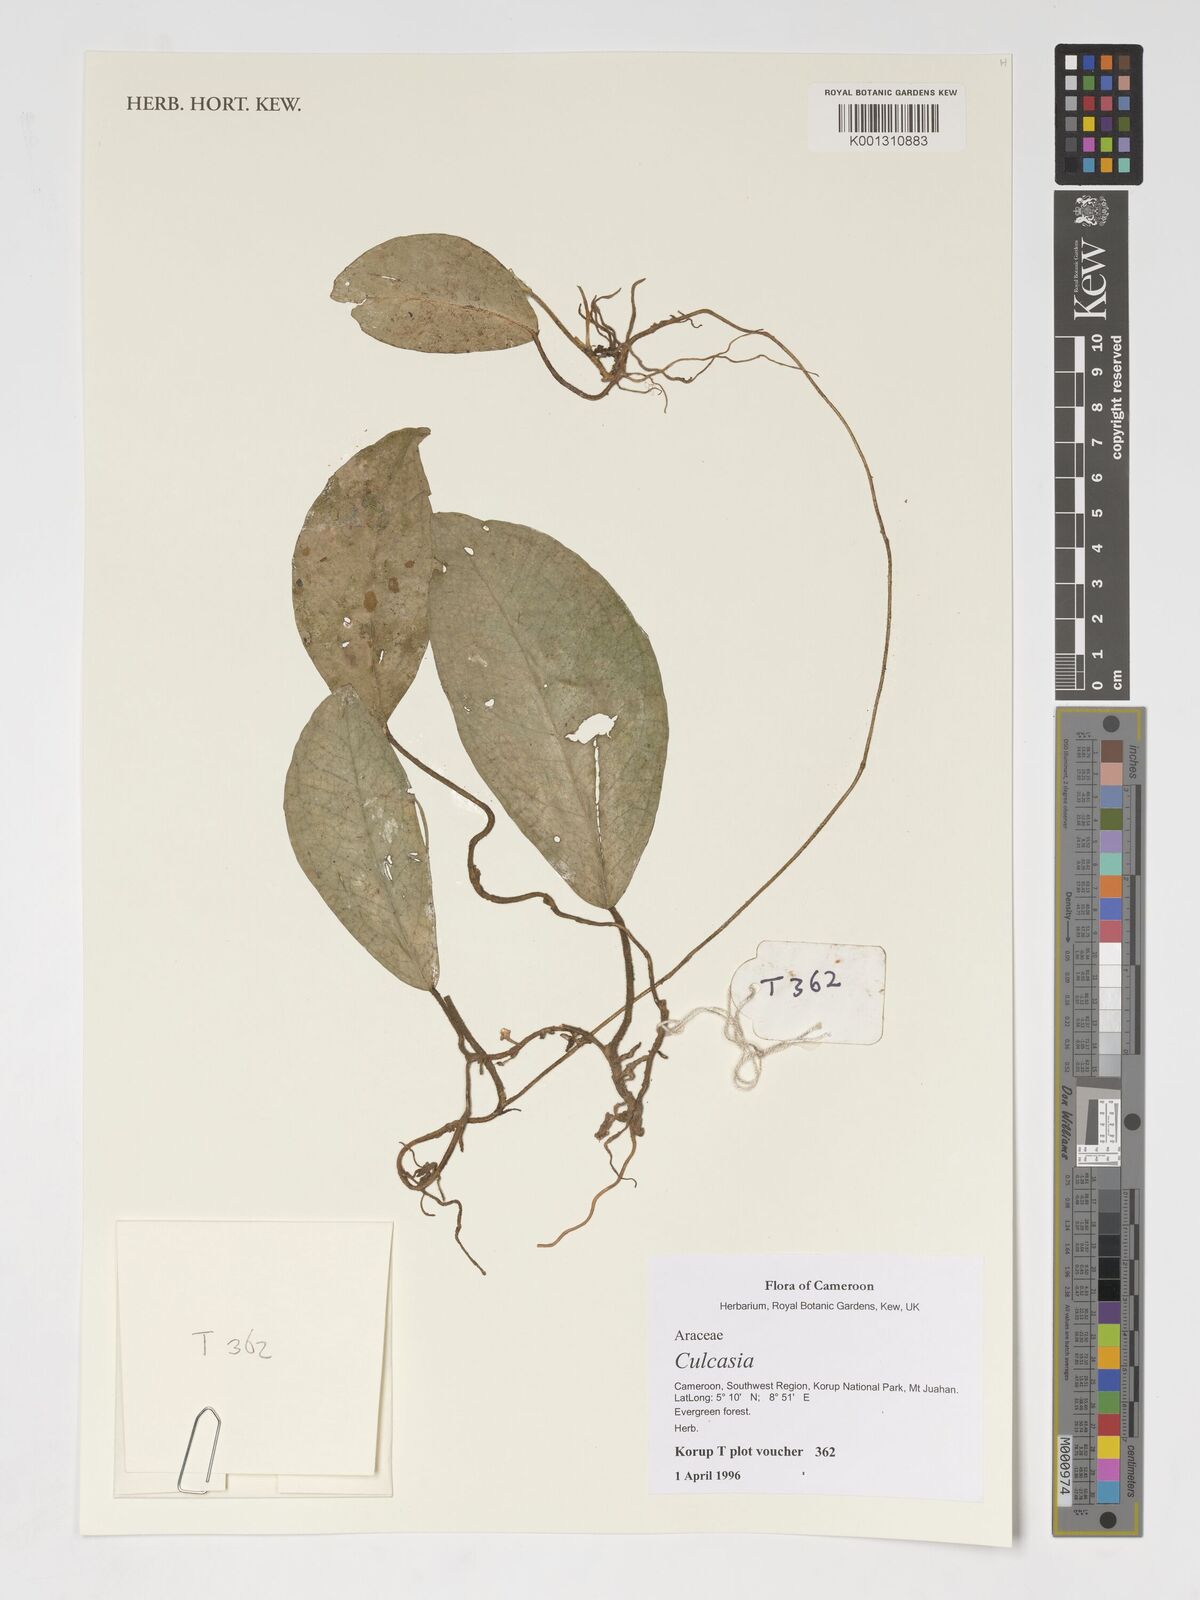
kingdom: Plantae
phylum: Tracheophyta
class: Liliopsida
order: Alismatales
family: Araceae
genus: Culcasia
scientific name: Culcasia
